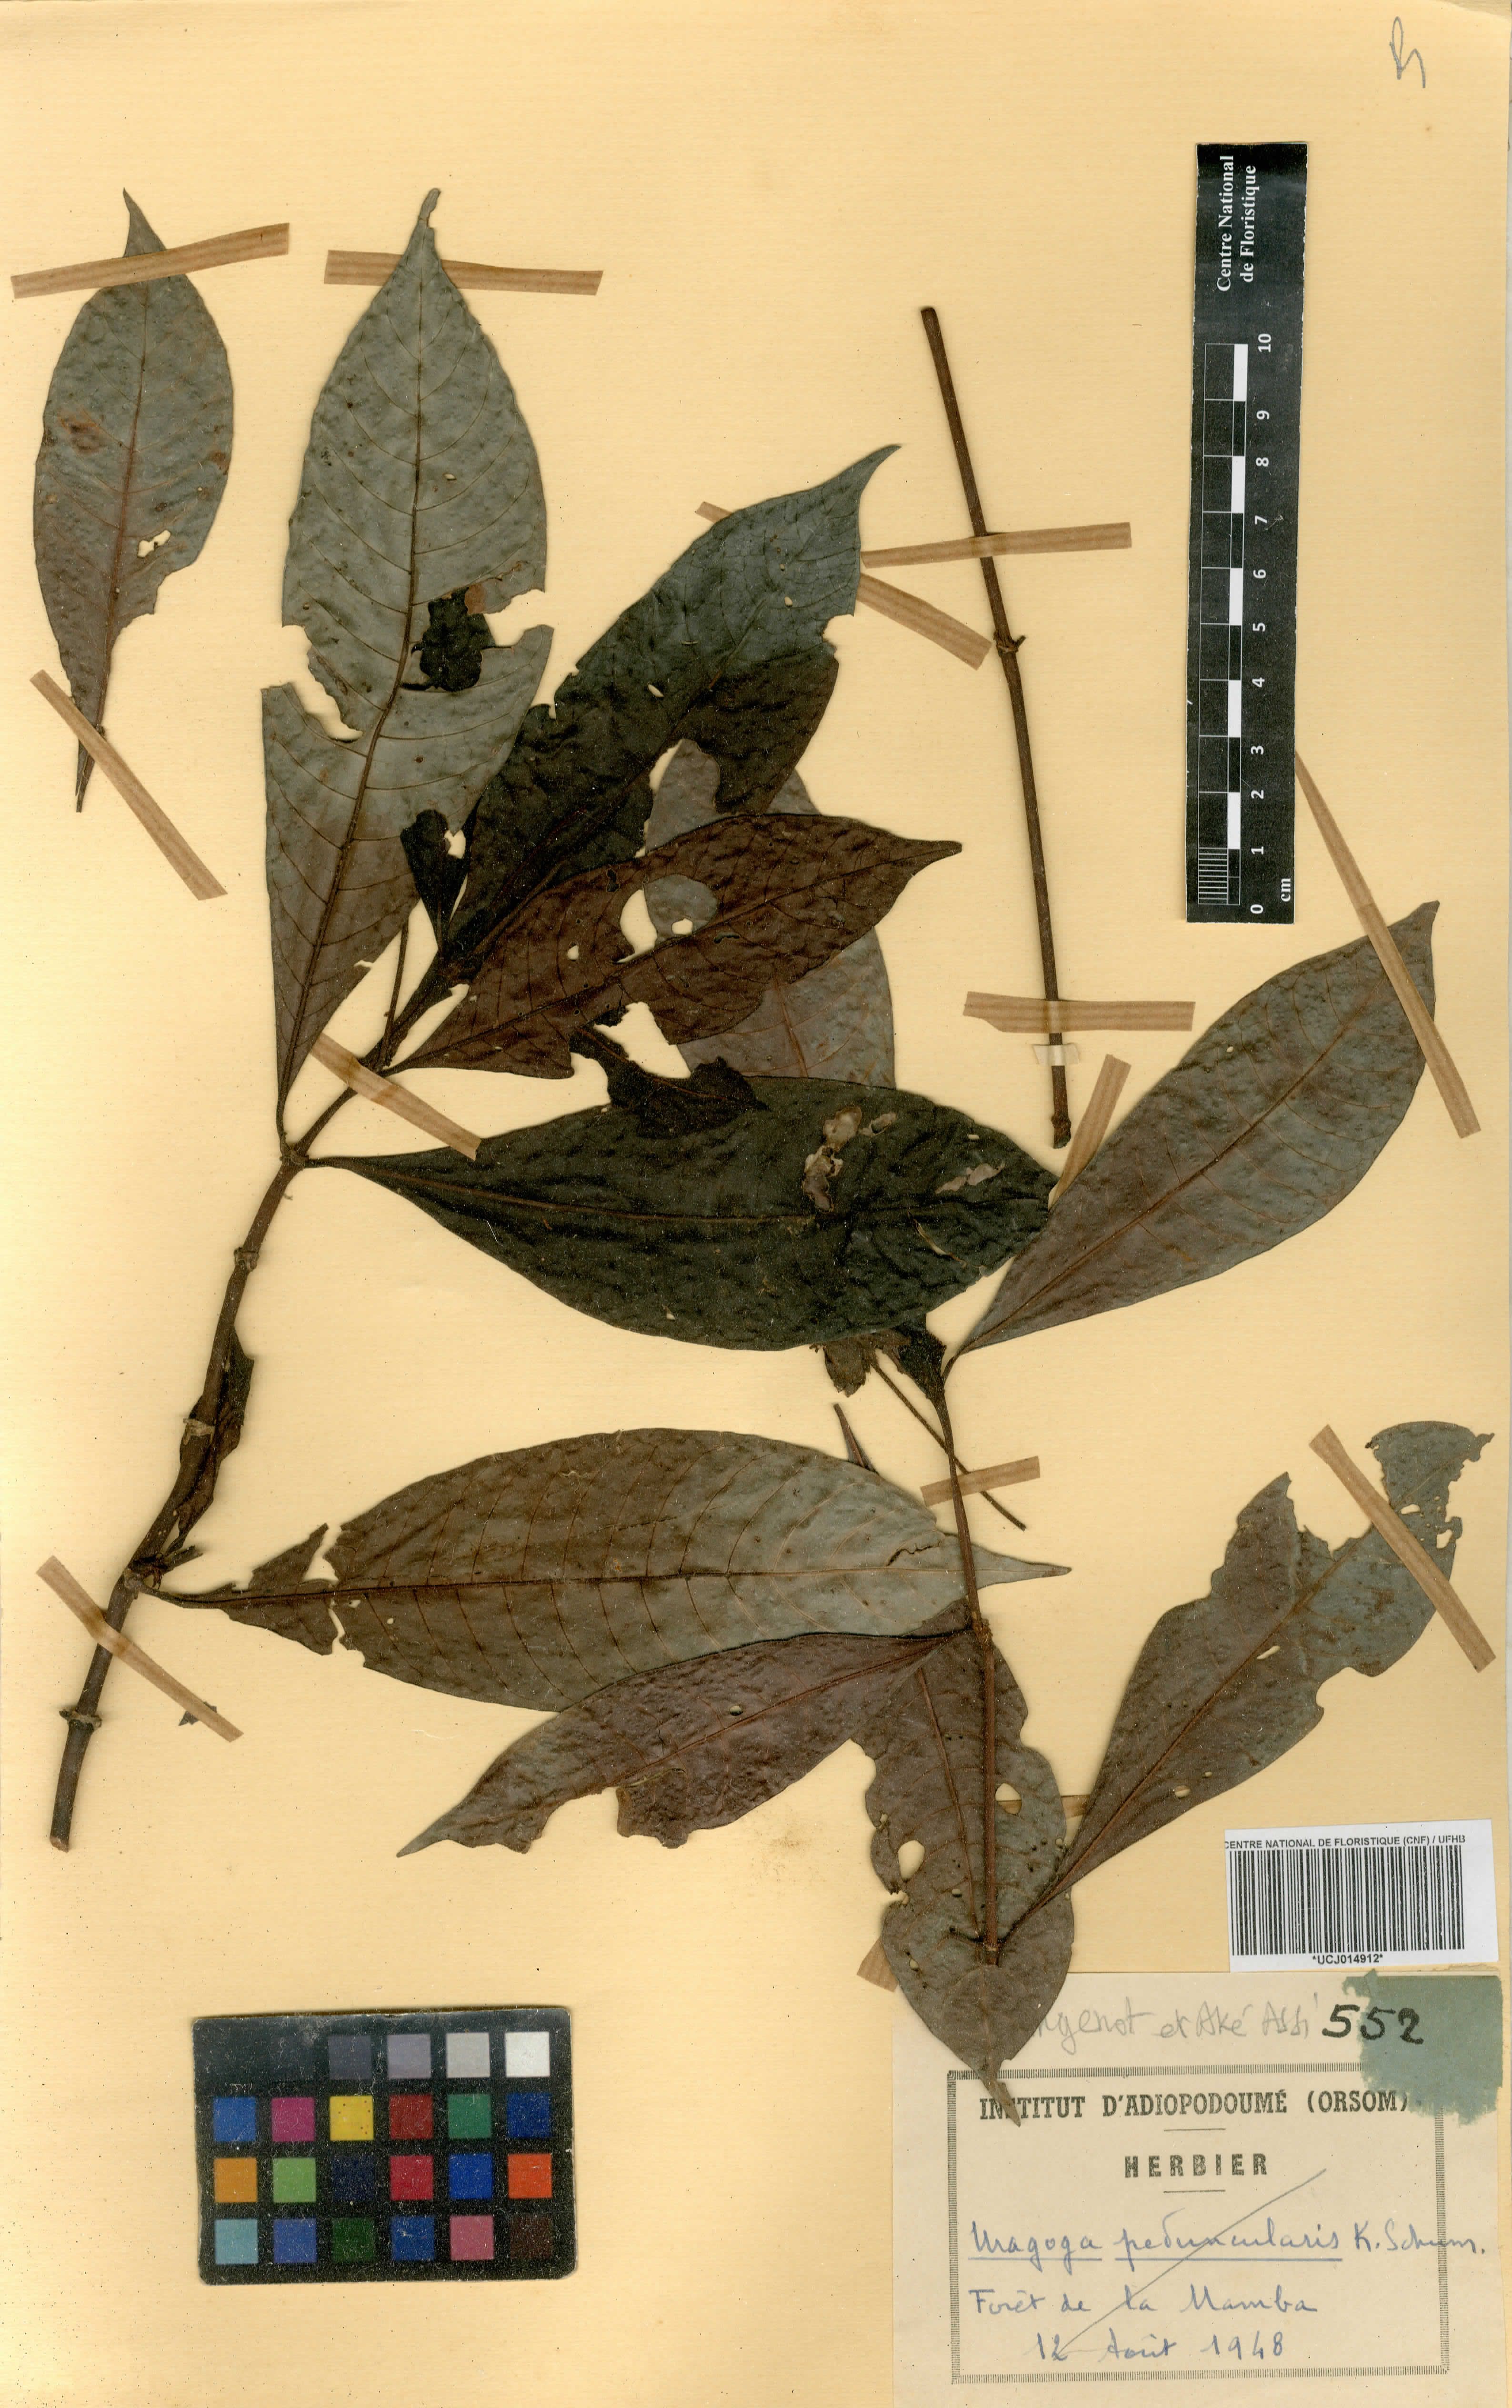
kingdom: Plantae
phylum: Tracheophyta
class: Magnoliopsida
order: Gentianales
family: Rubiaceae
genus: Psychotria
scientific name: Psychotria peduncularis
